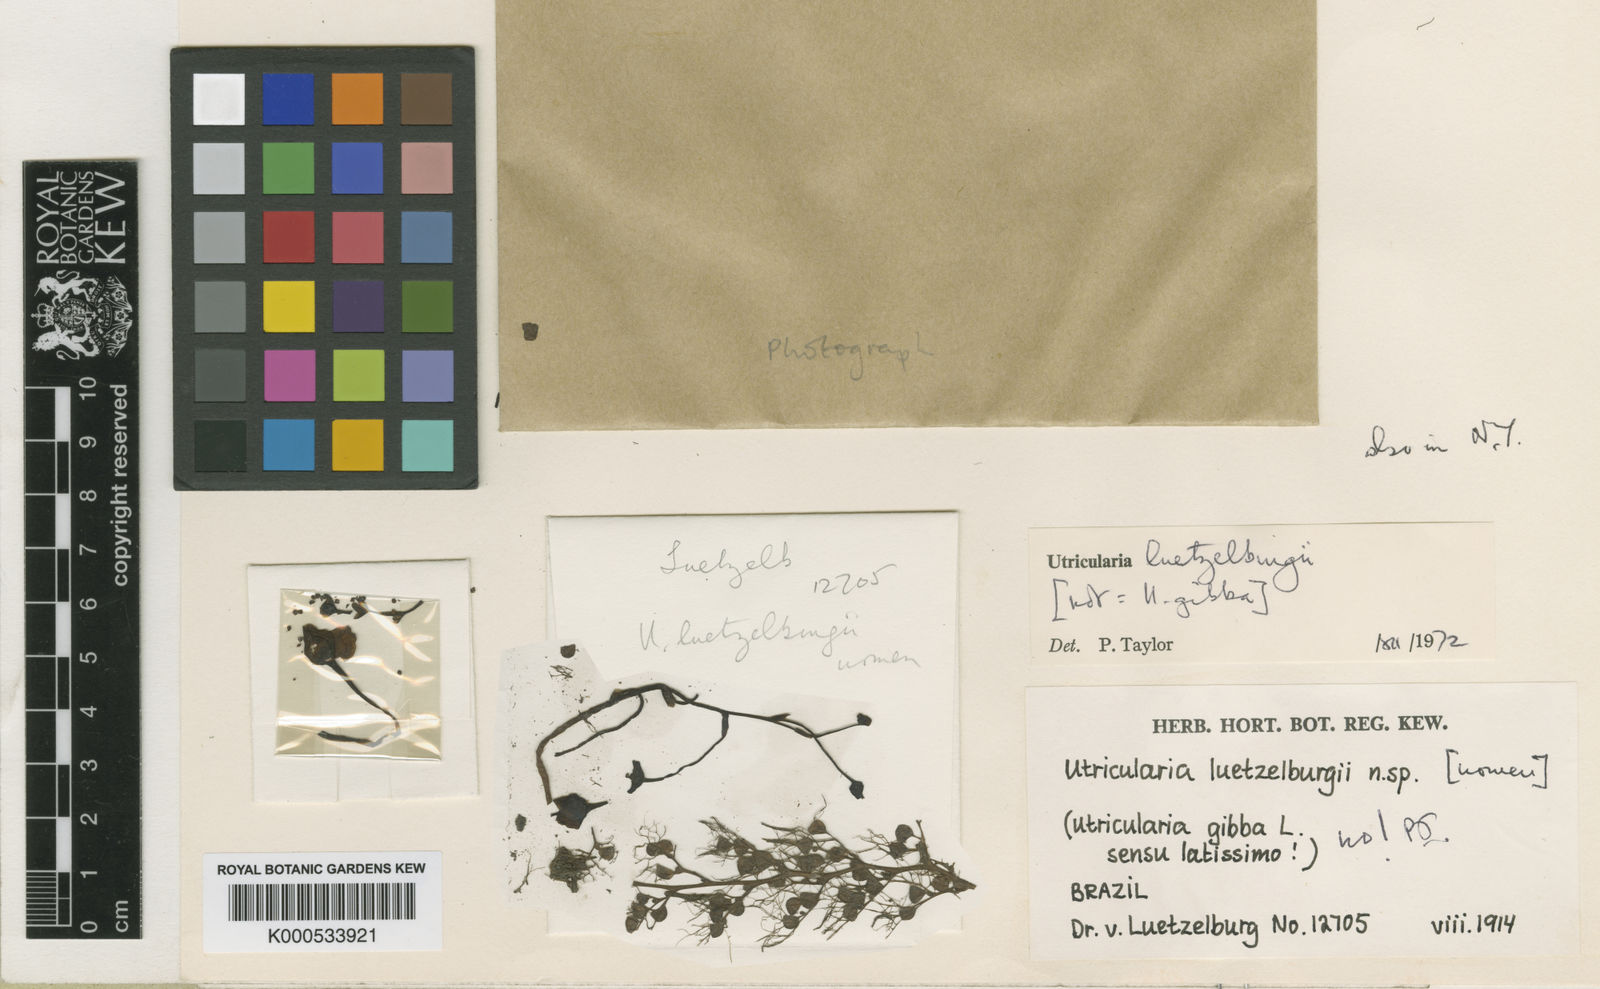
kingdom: Plantae
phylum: Tracheophyta
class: Magnoliopsida
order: Lamiales
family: Lentibulariaceae
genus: Utricularia
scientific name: Utricularia poconensis
